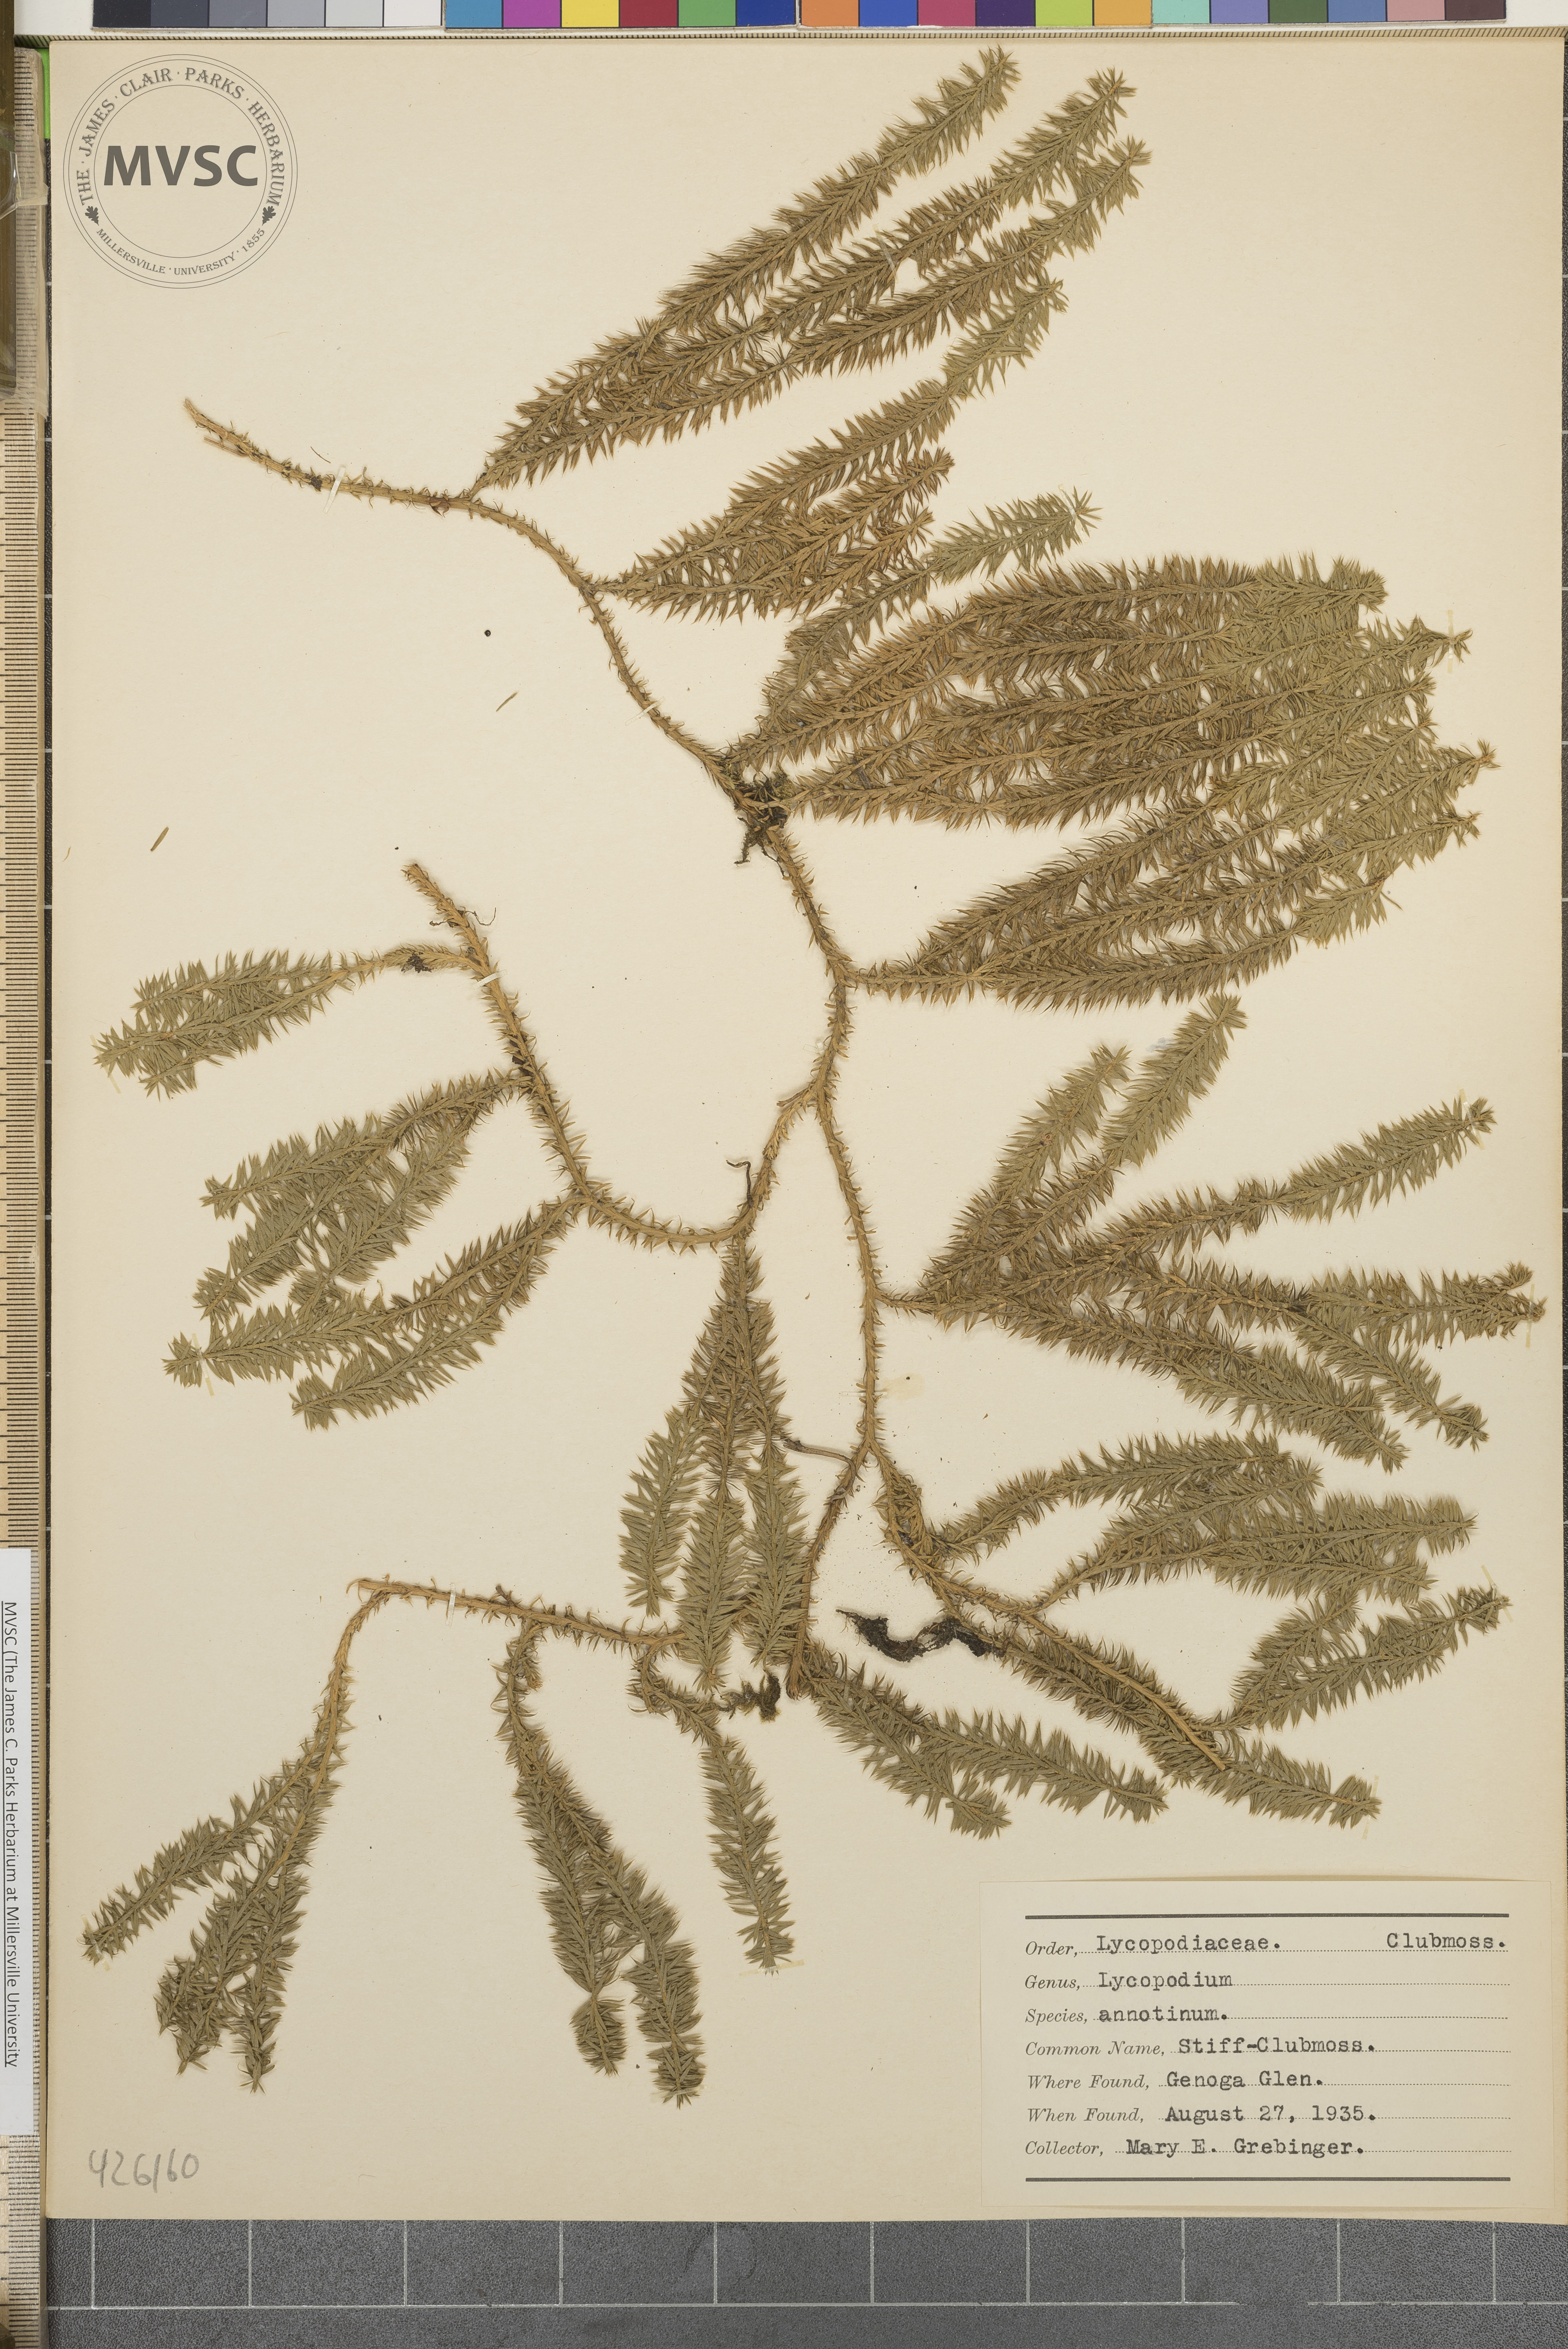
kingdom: Plantae
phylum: Tracheophyta
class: Lycopodiopsida
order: Lycopodiales
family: Lycopodiaceae
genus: Spinulum
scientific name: Spinulum annotinum
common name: Stiff Clubmoss
